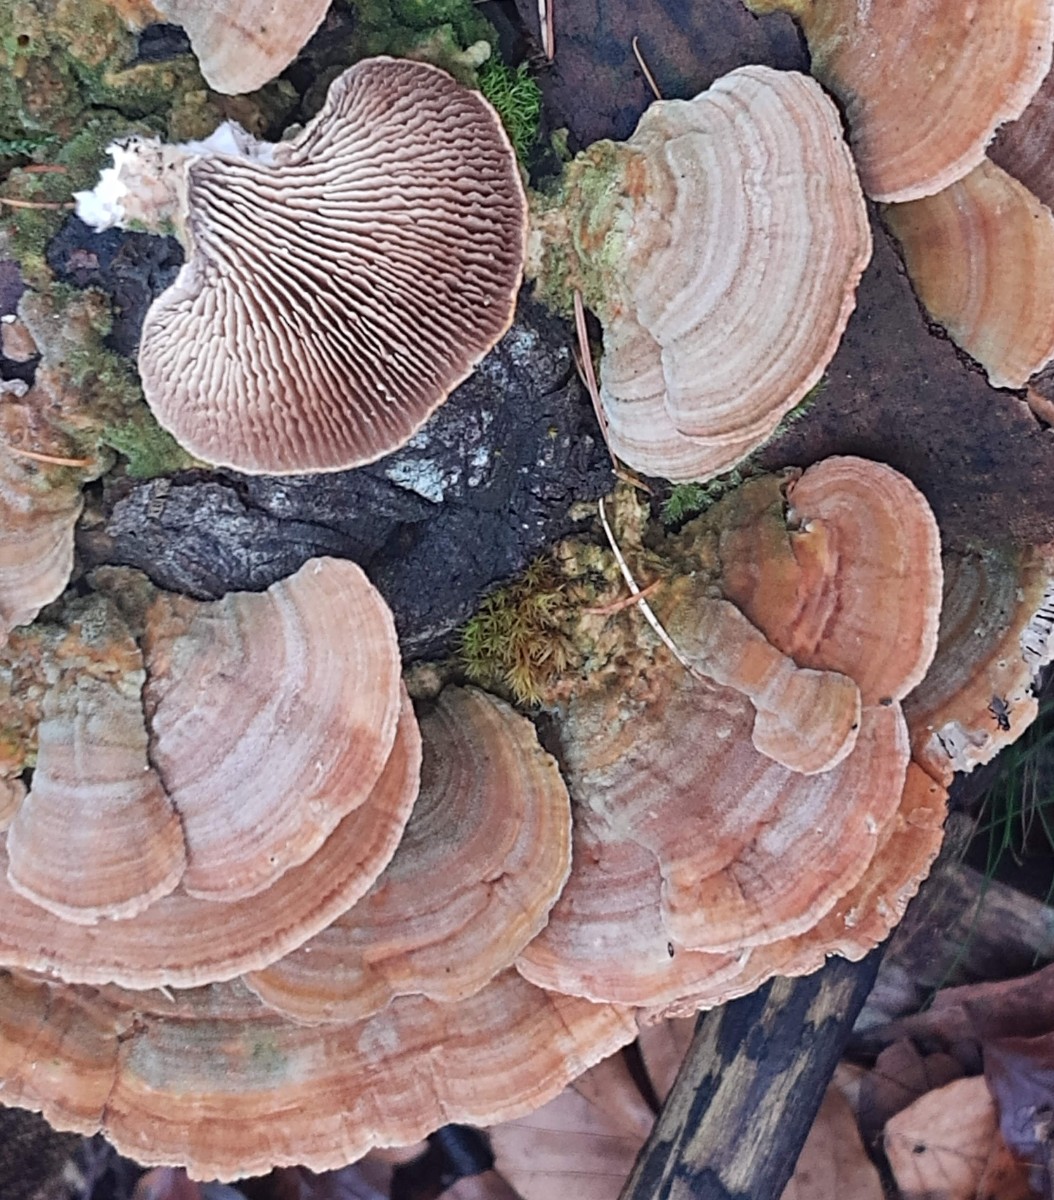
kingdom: Fungi
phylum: Basidiomycota
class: Agaricomycetes
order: Polyporales
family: Polyporaceae
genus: Lenzites
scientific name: Lenzites betulinus
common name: birke-læderporesvamp
